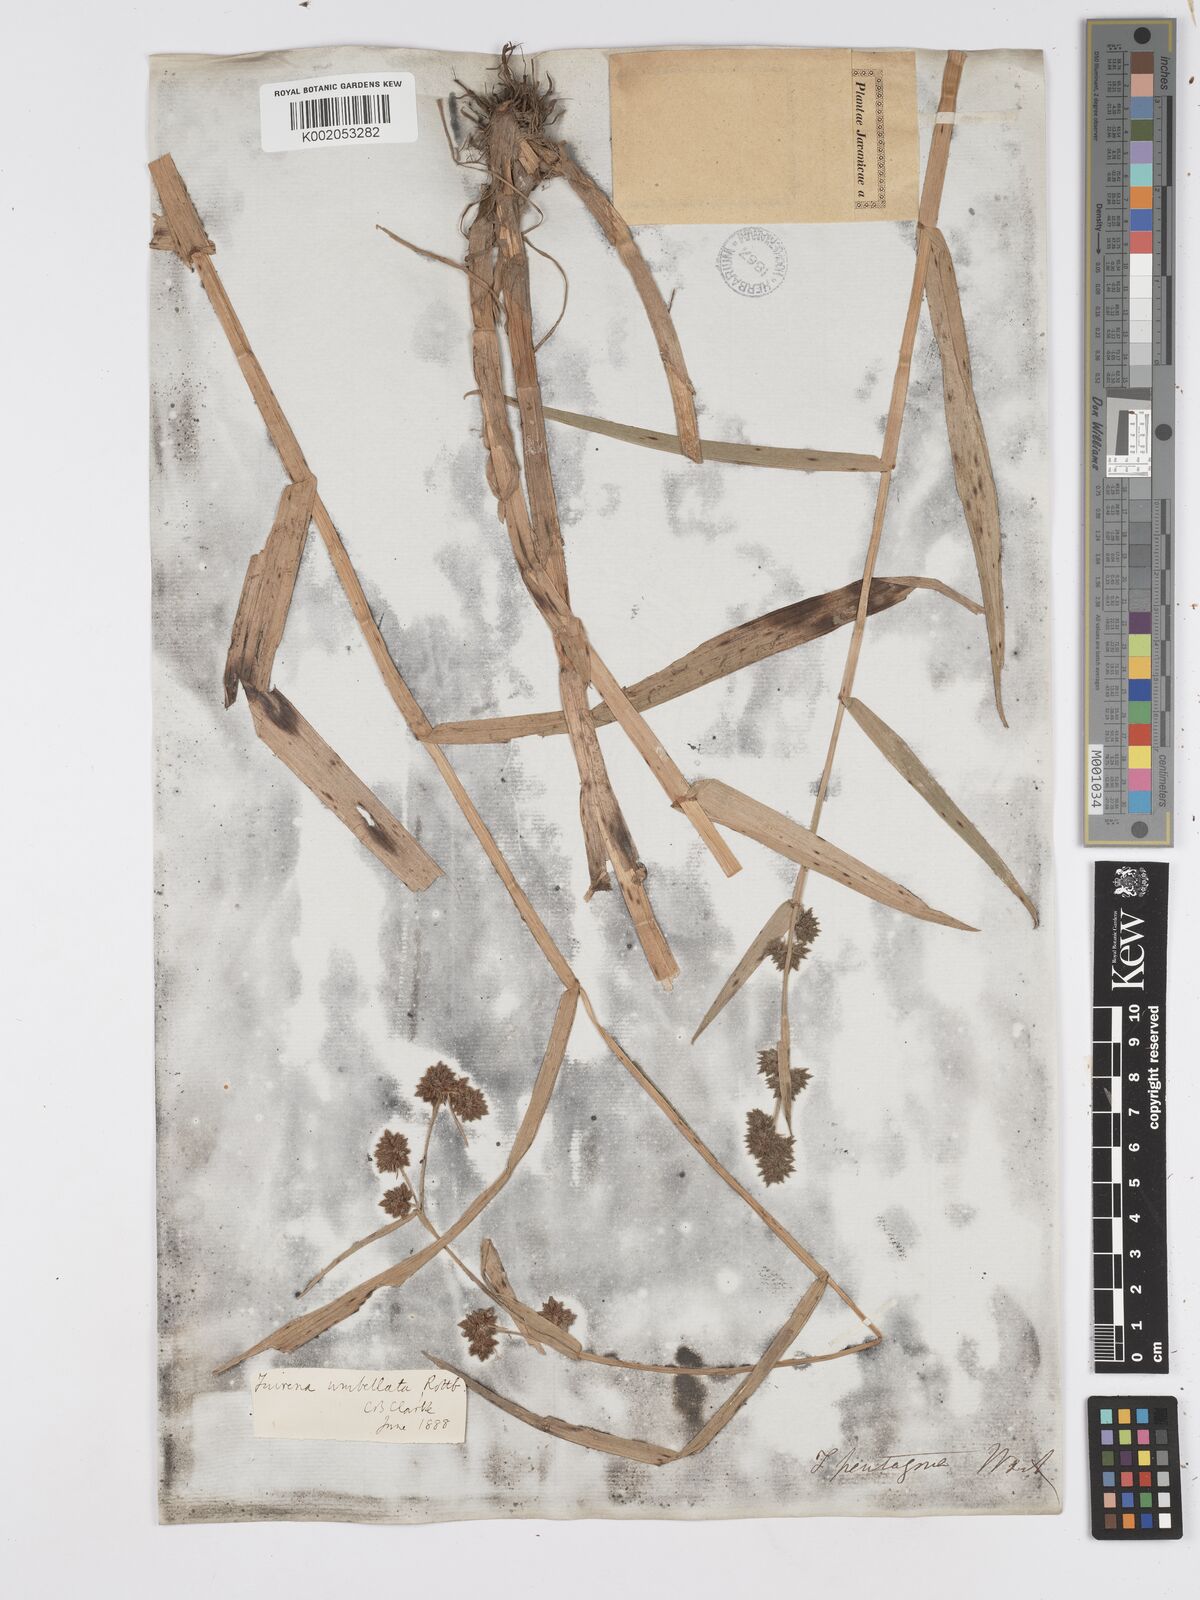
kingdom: Plantae
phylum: Tracheophyta
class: Liliopsida
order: Poales
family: Cyperaceae
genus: Fuirena
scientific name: Fuirena umbellata
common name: Yefen
